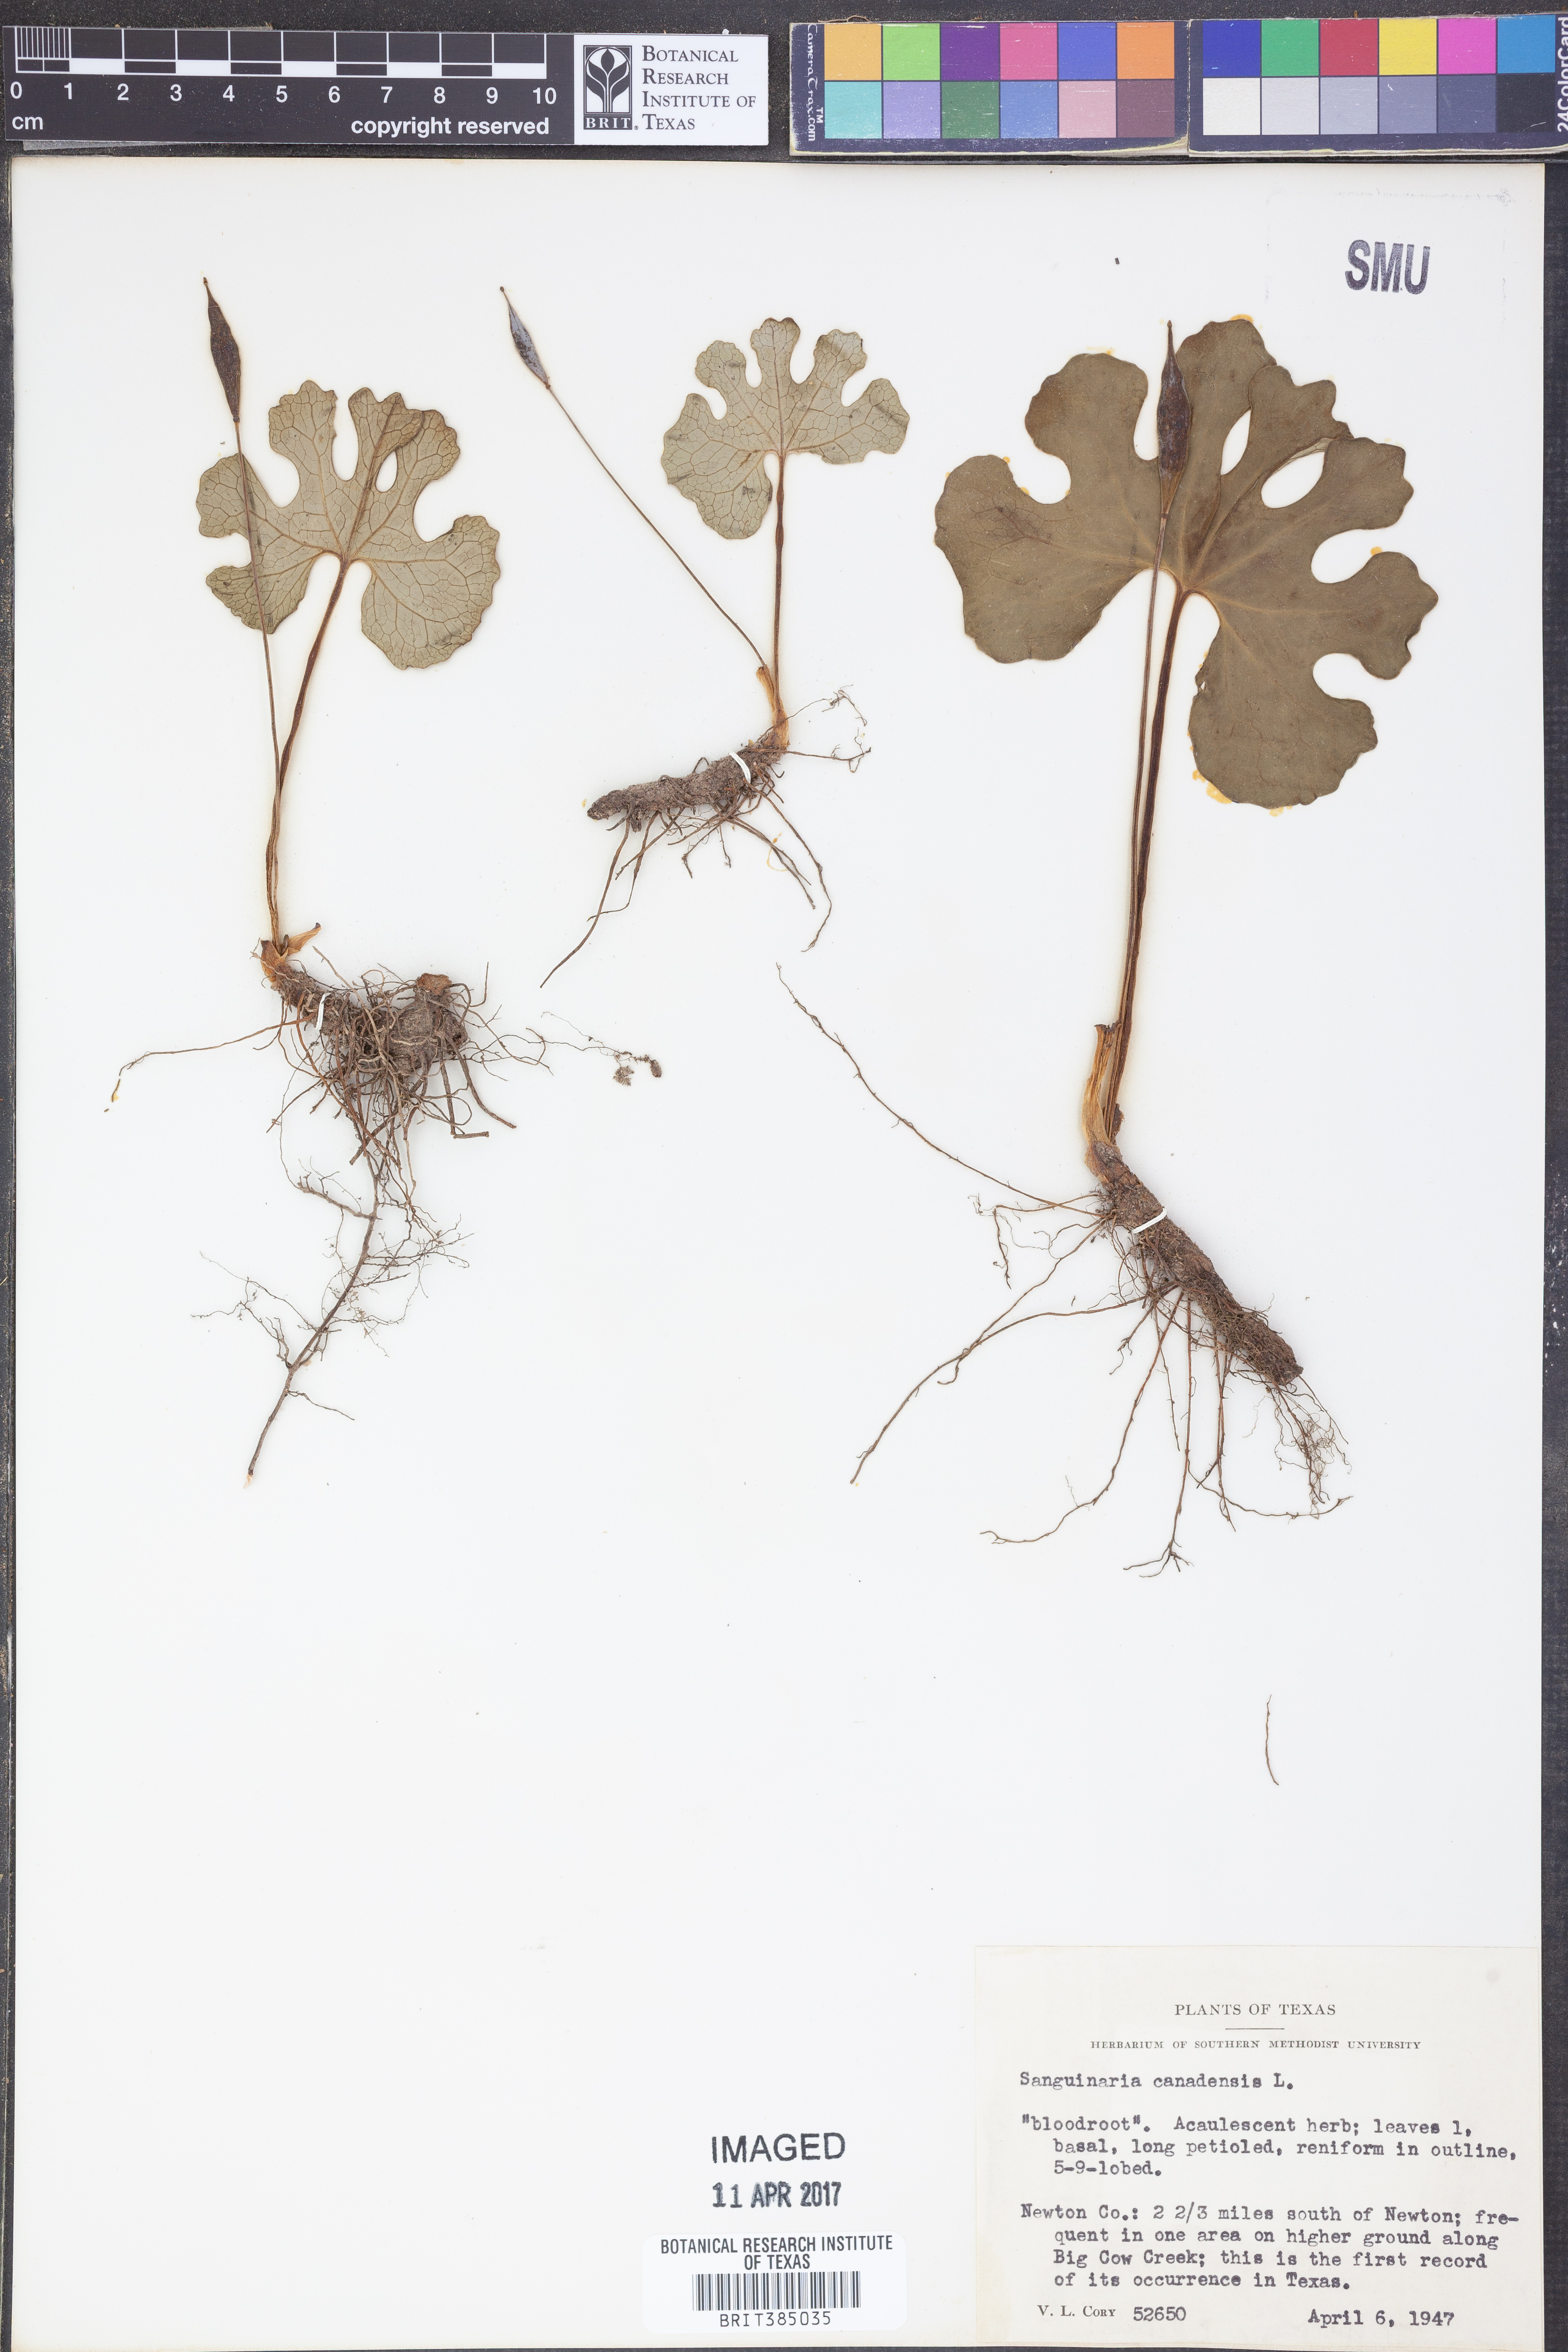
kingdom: Plantae
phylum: Tracheophyta
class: Magnoliopsida
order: Ranunculales
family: Papaveraceae
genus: Sanguinaria
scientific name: Sanguinaria canadensis
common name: Bloodroot
